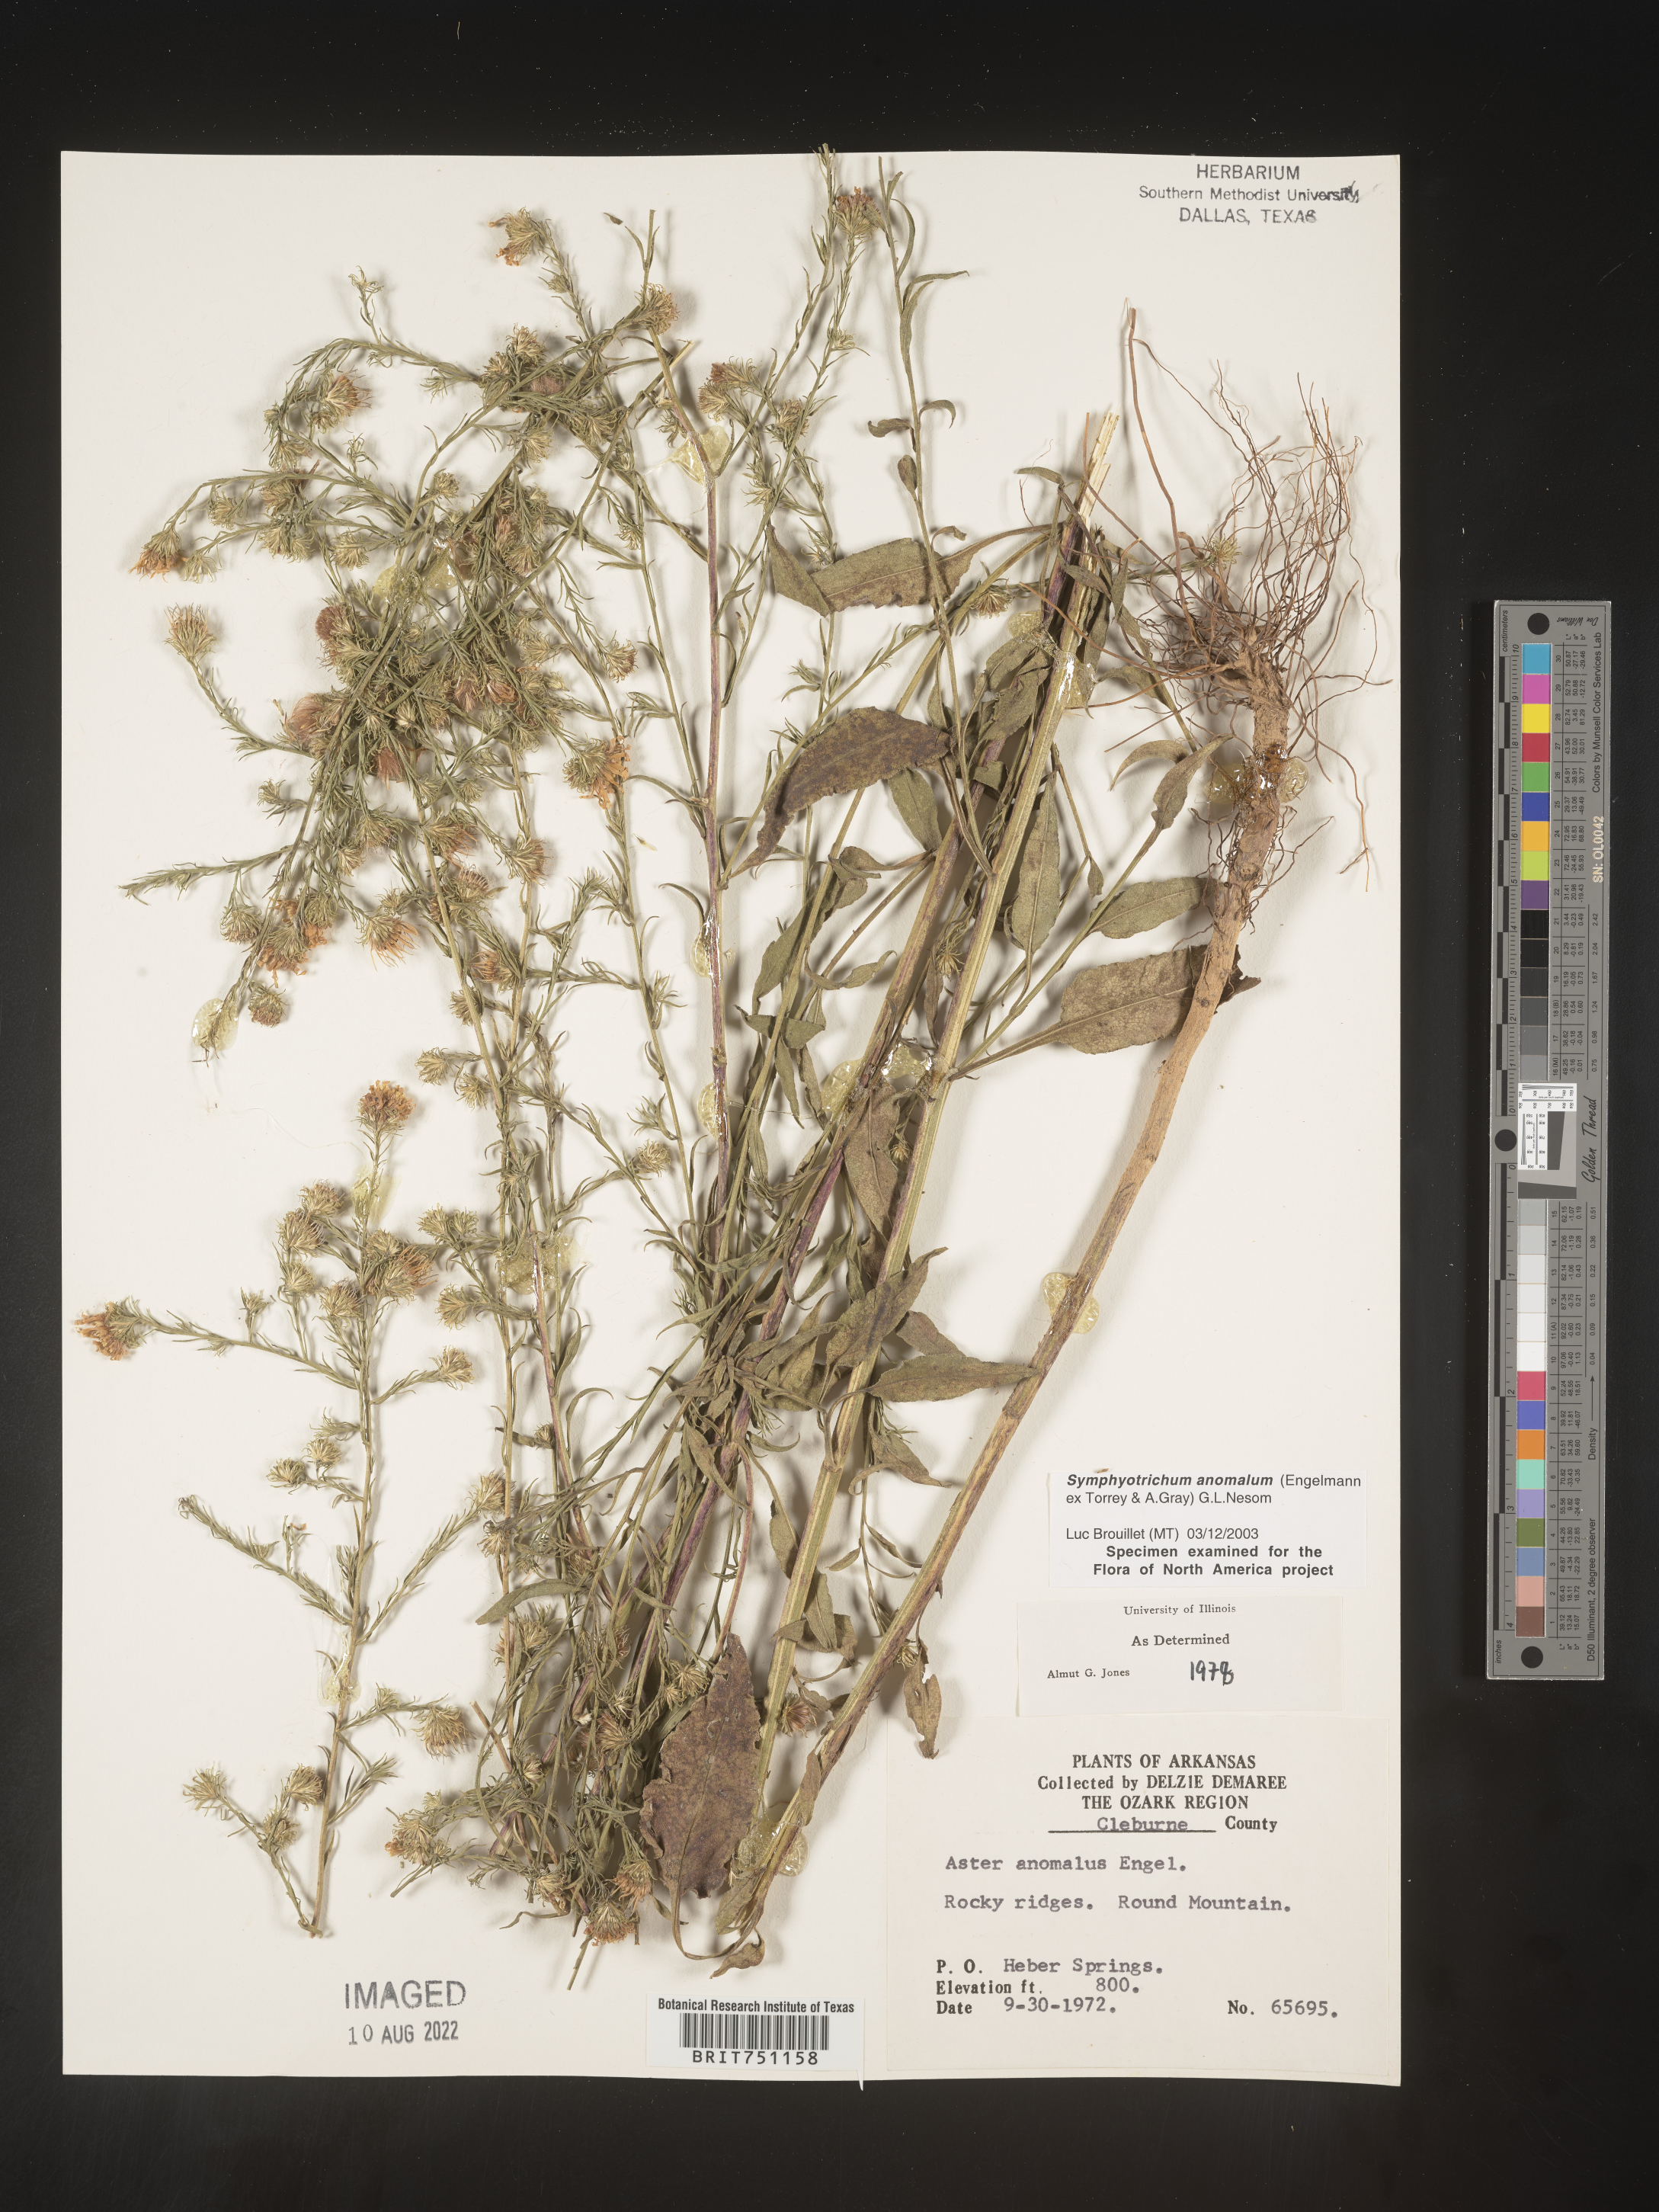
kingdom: Plantae
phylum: Tracheophyta
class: Magnoliopsida
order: Asterales
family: Asteraceae
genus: Symphyotrichum
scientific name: Symphyotrichum anomalum
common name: Many-ray aster
